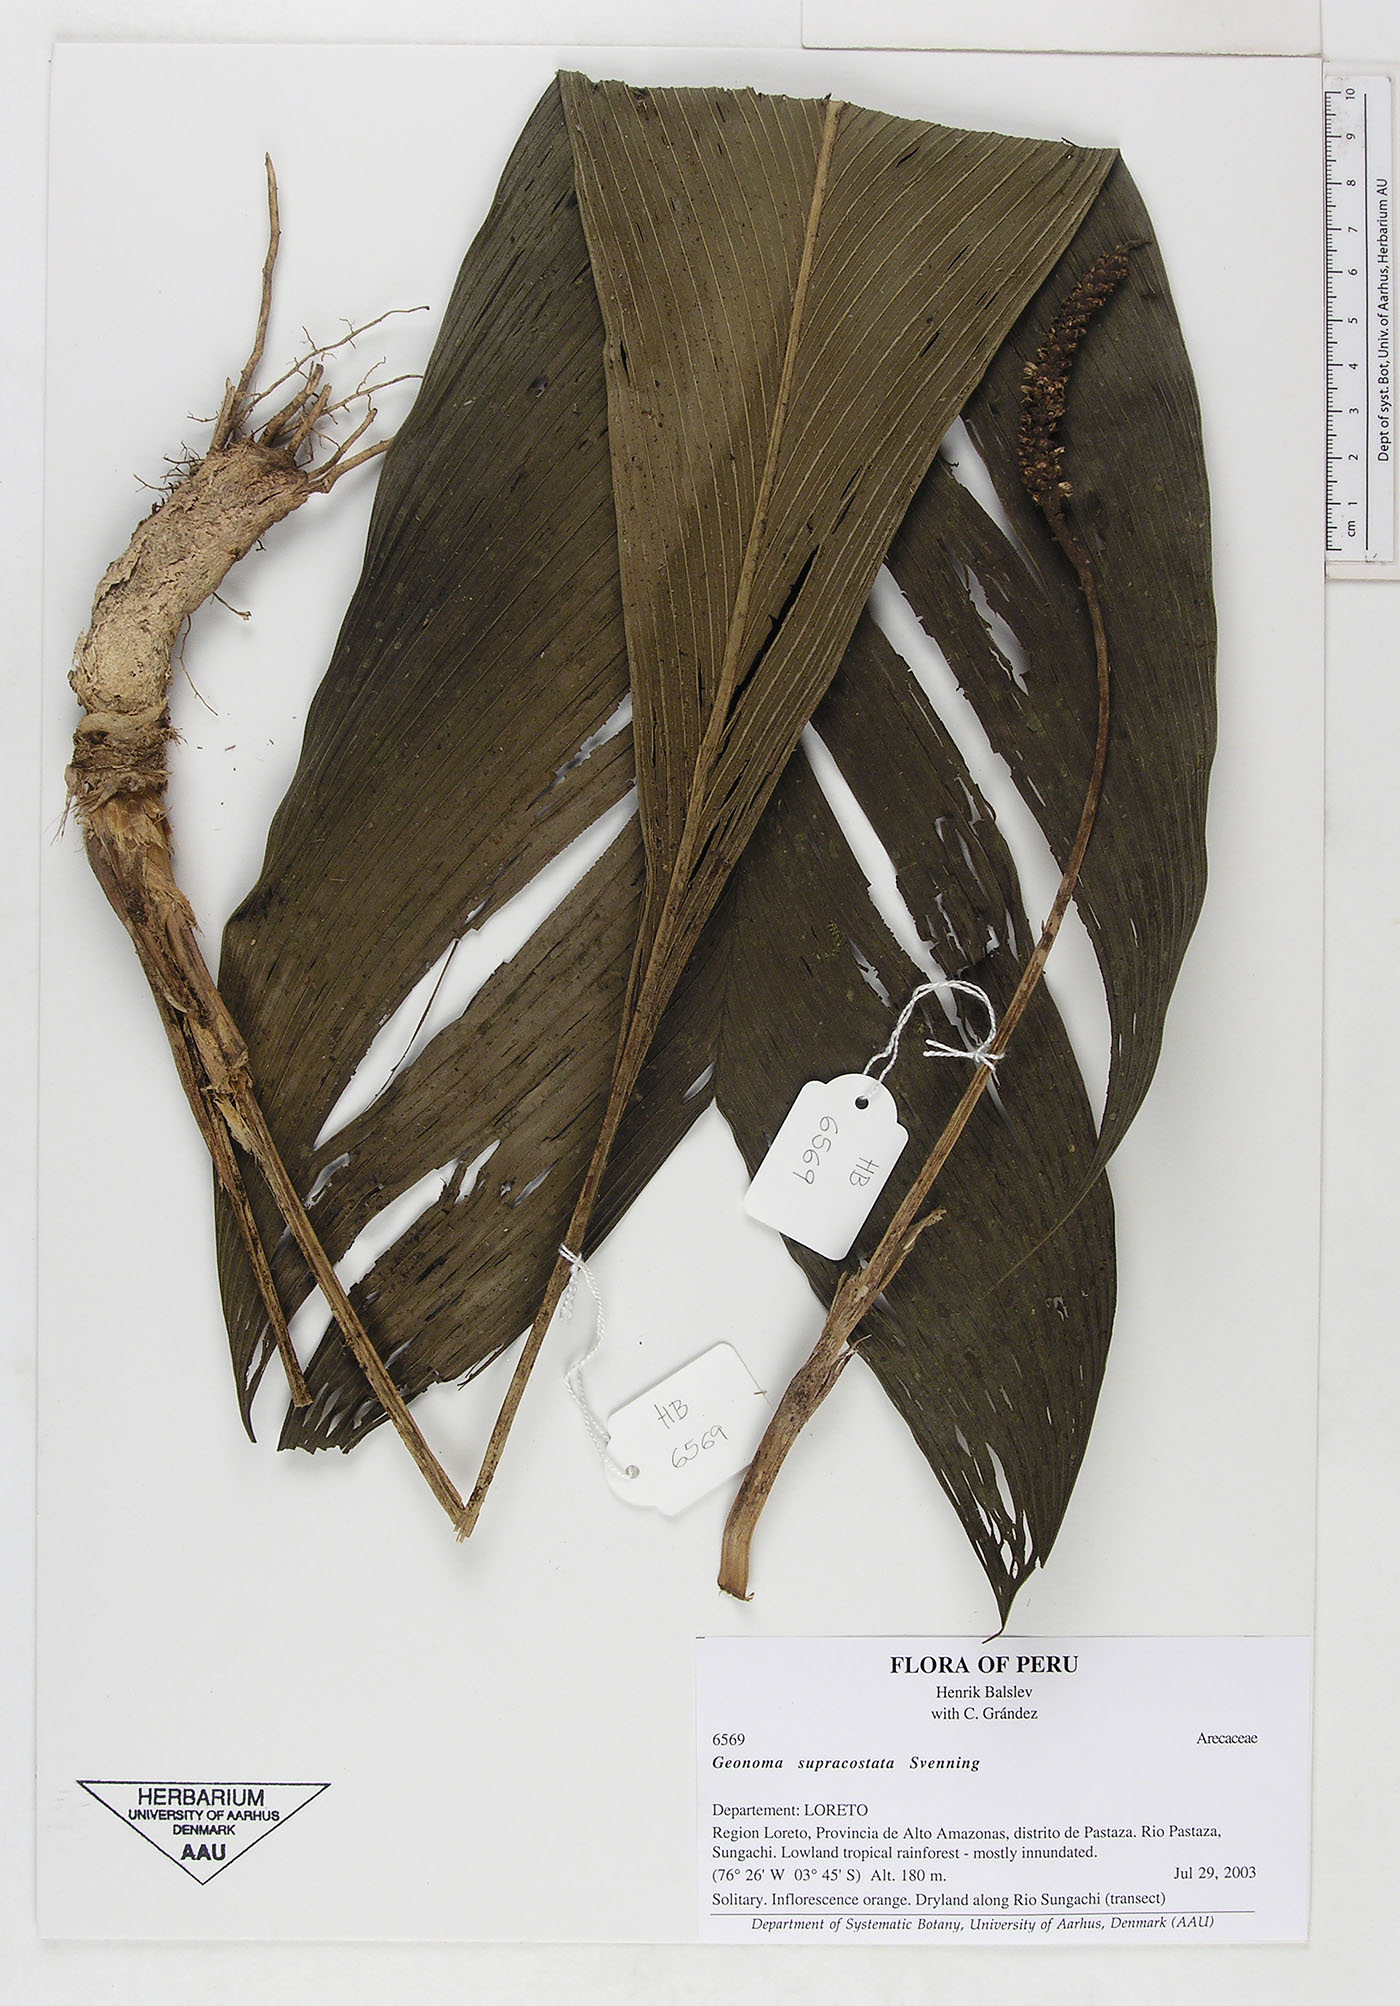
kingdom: Plantae
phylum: Tracheophyta
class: Liliopsida
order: Arecales
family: Arecaceae
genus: Geonoma
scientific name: Geonoma macrostachys
